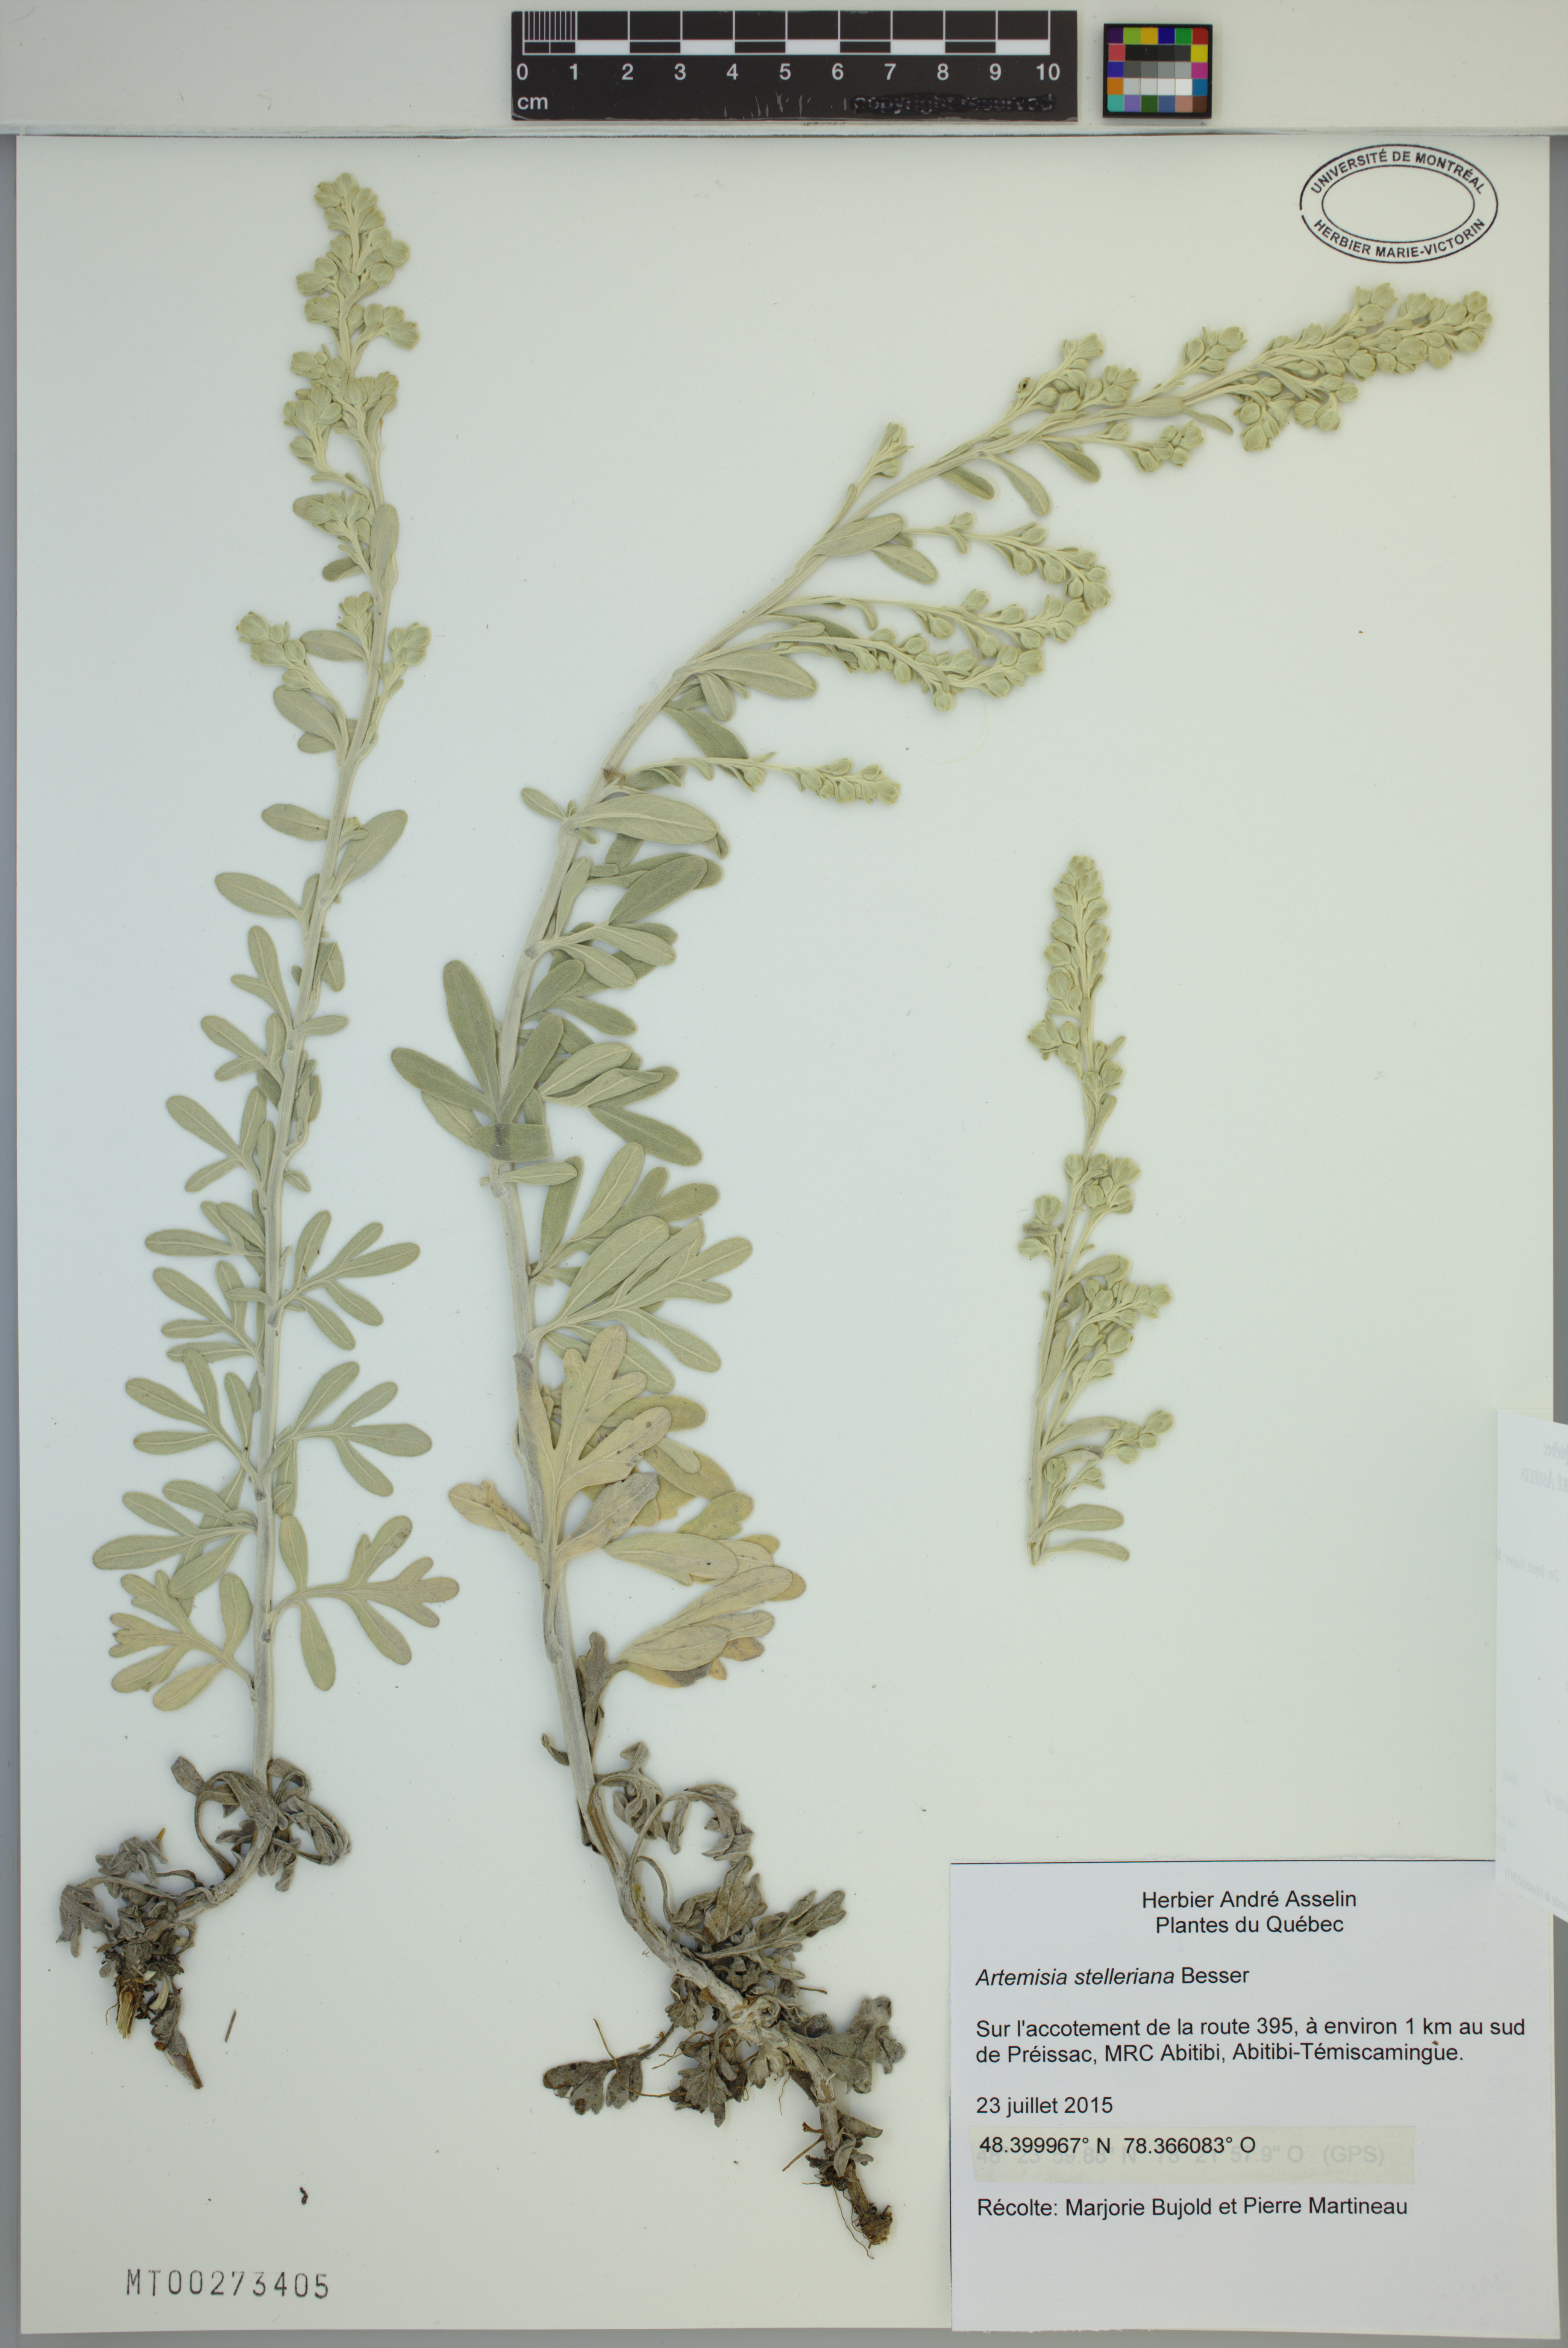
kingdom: Plantae
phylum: Tracheophyta
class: Magnoliopsida
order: Asterales
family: Asteraceae
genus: Artemisia
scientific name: Artemisia stelleriana
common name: Beach wormwood
